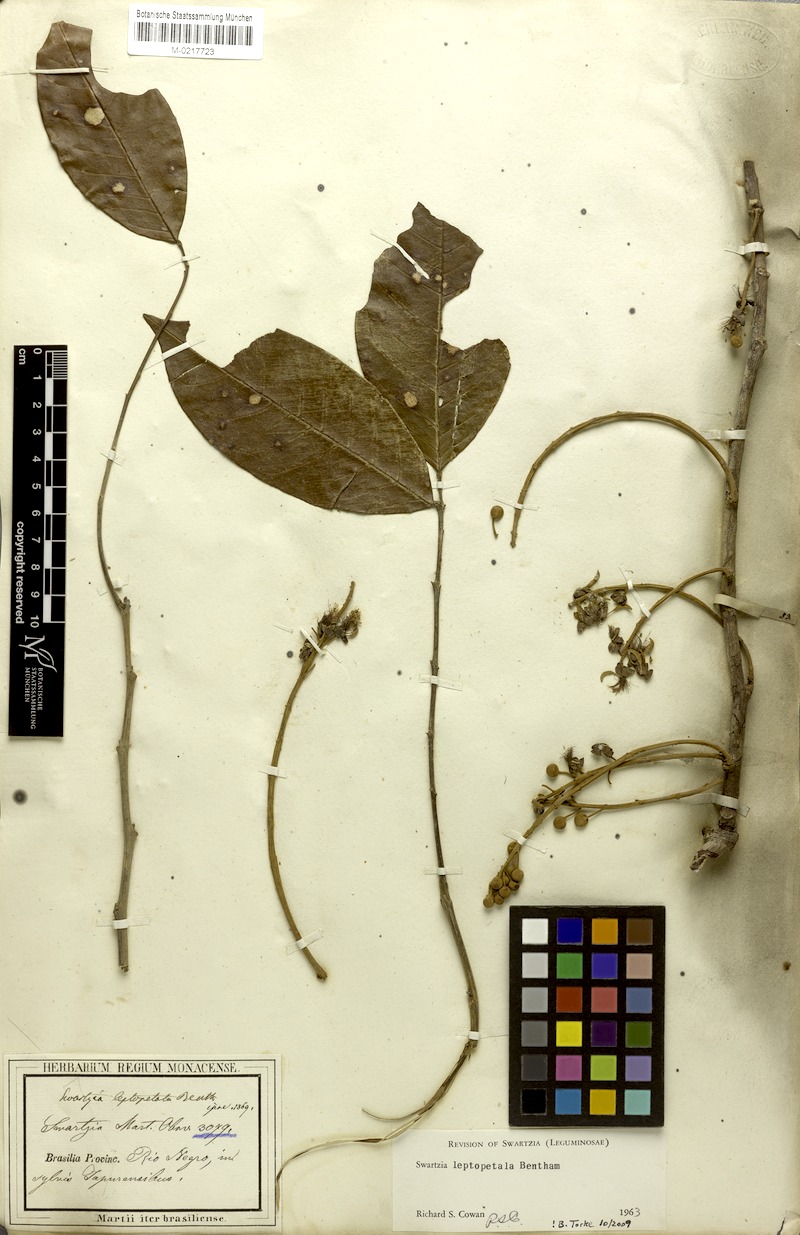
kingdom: Plantae
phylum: Tracheophyta
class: Magnoliopsida
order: Fabales
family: Fabaceae
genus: Swartzia
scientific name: Swartzia leptopetala
